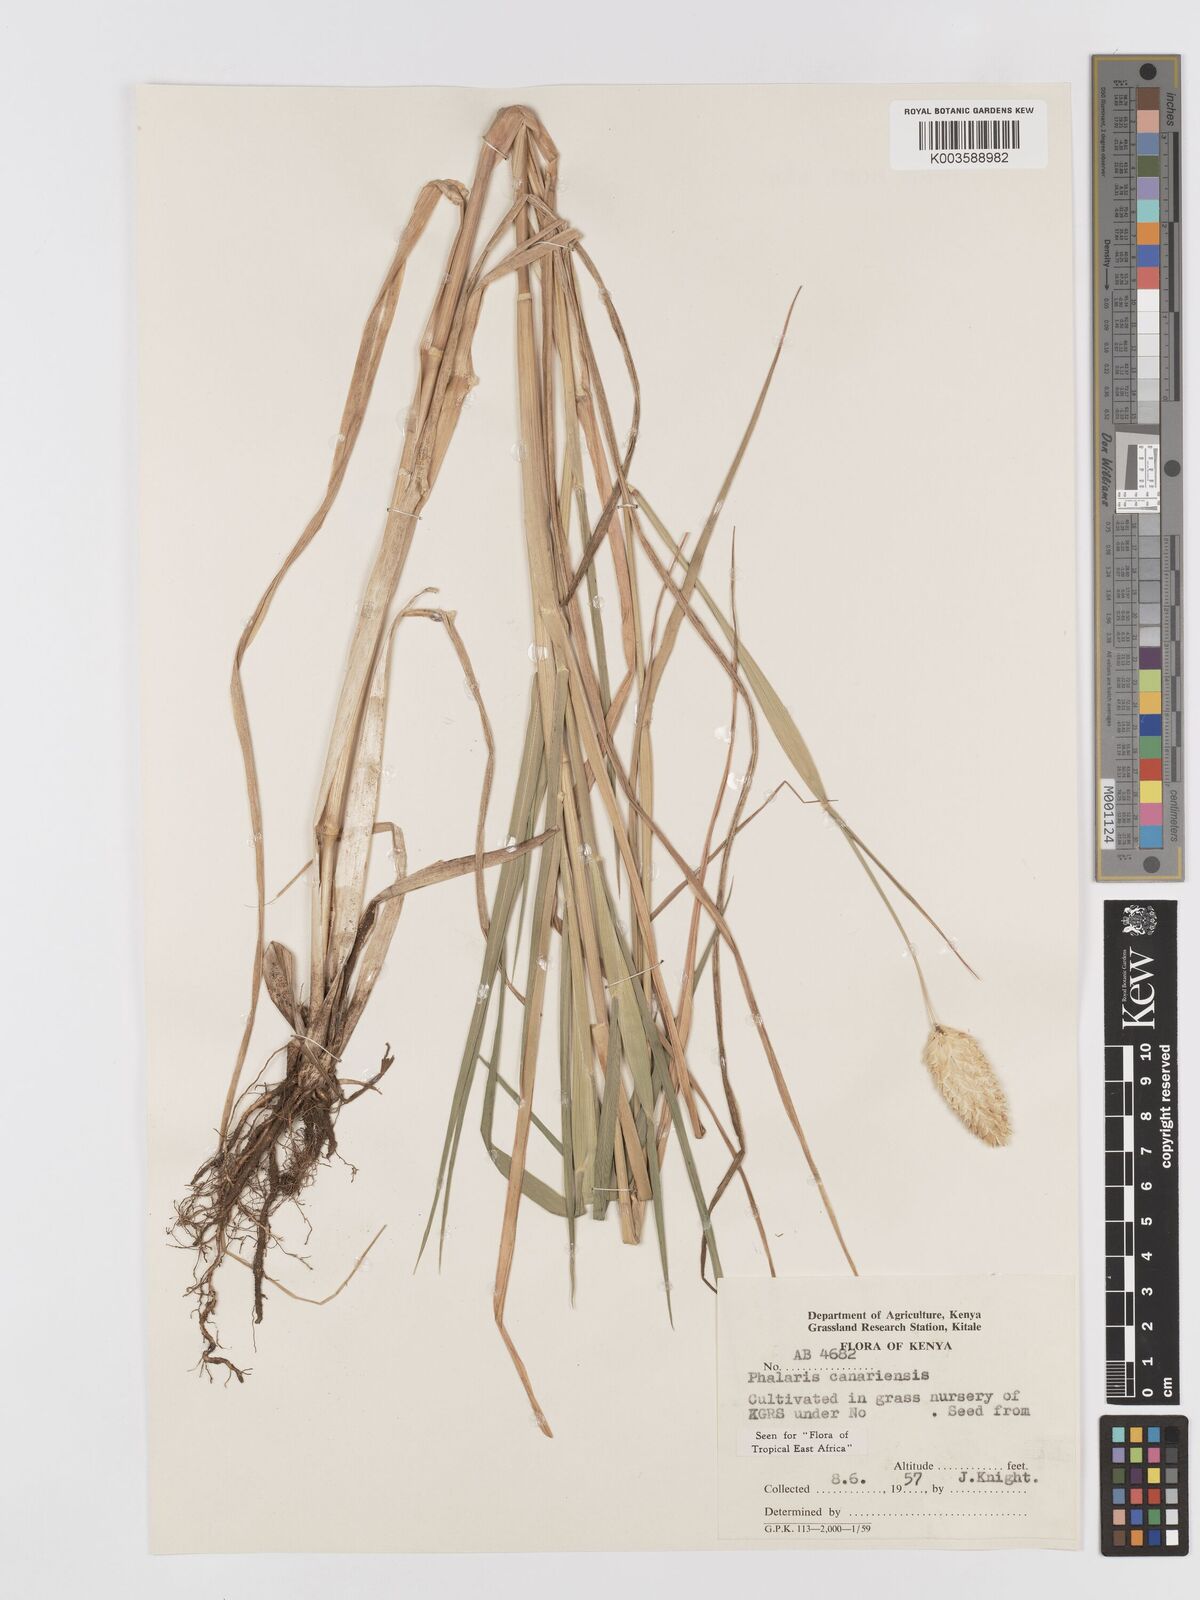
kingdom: Plantae
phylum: Tracheophyta
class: Liliopsida
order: Poales
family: Poaceae
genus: Phalaris
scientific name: Phalaris canariensis
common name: Annual canarygrass
